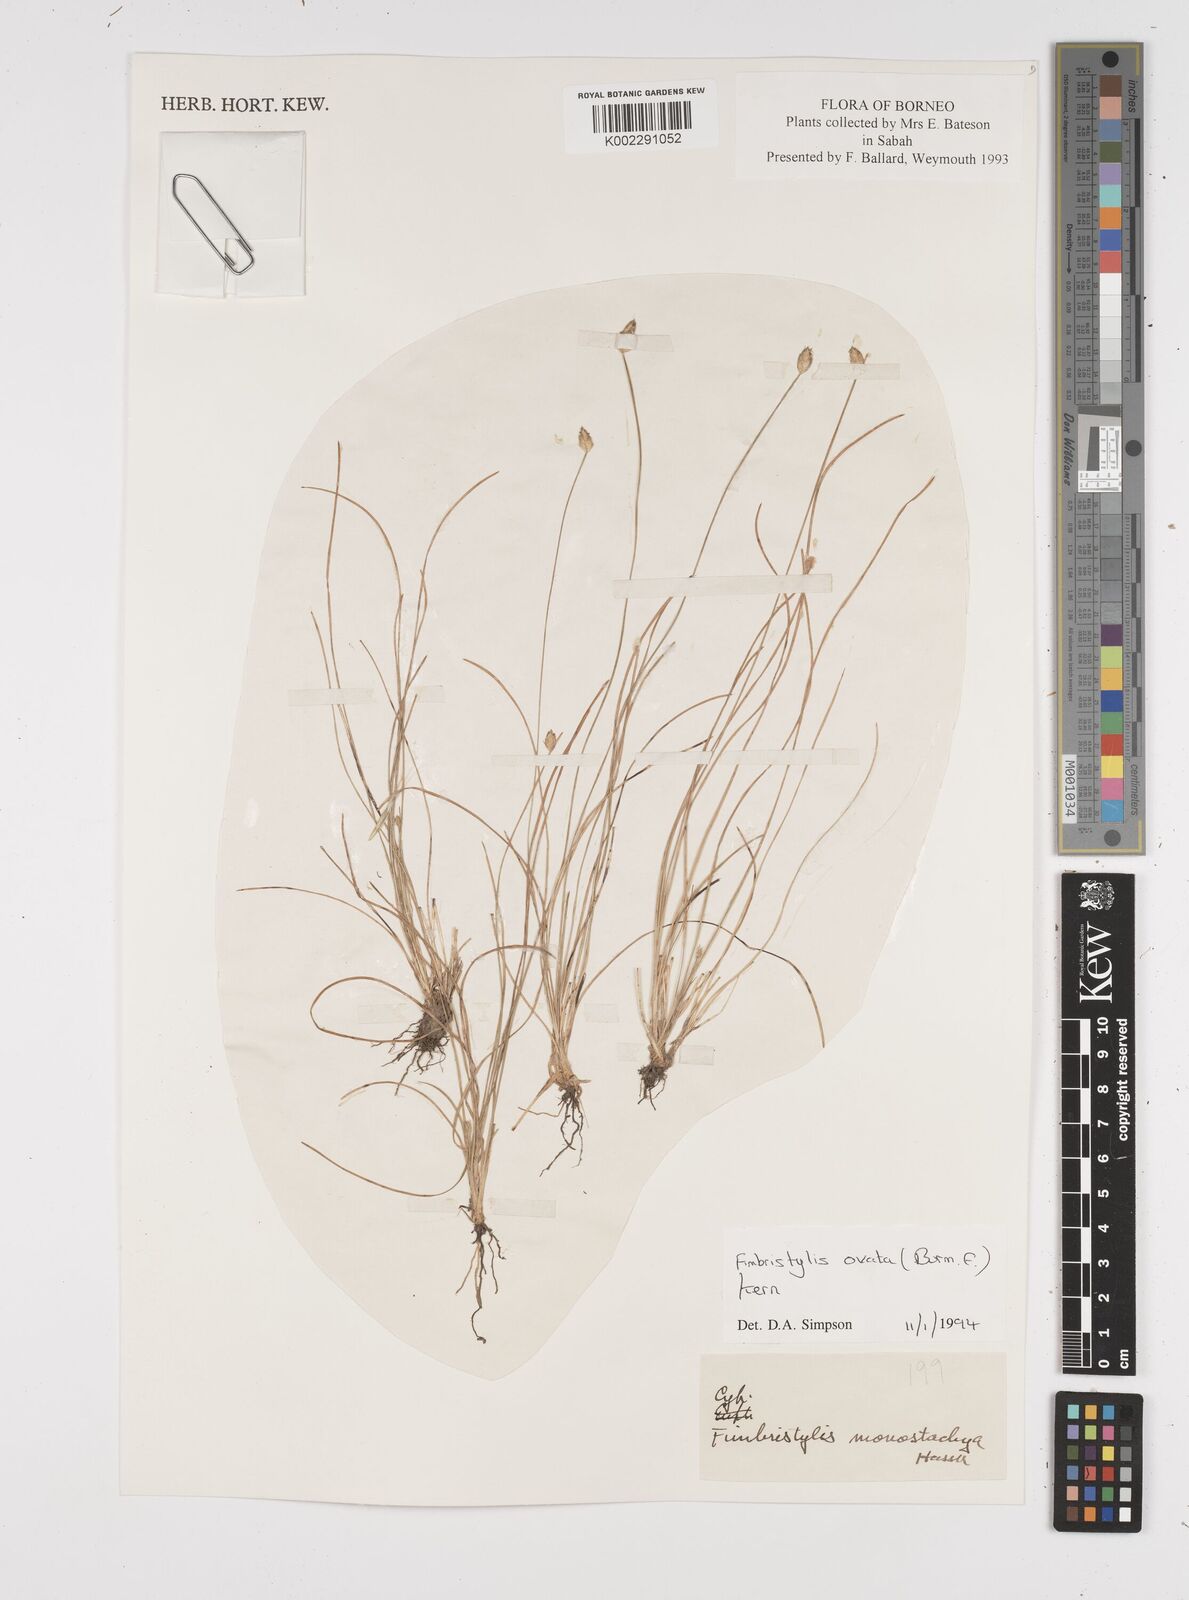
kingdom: Plantae
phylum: Tracheophyta
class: Liliopsida
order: Poales
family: Cyperaceae
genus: Abildgaardia
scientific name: Abildgaardia ovata
